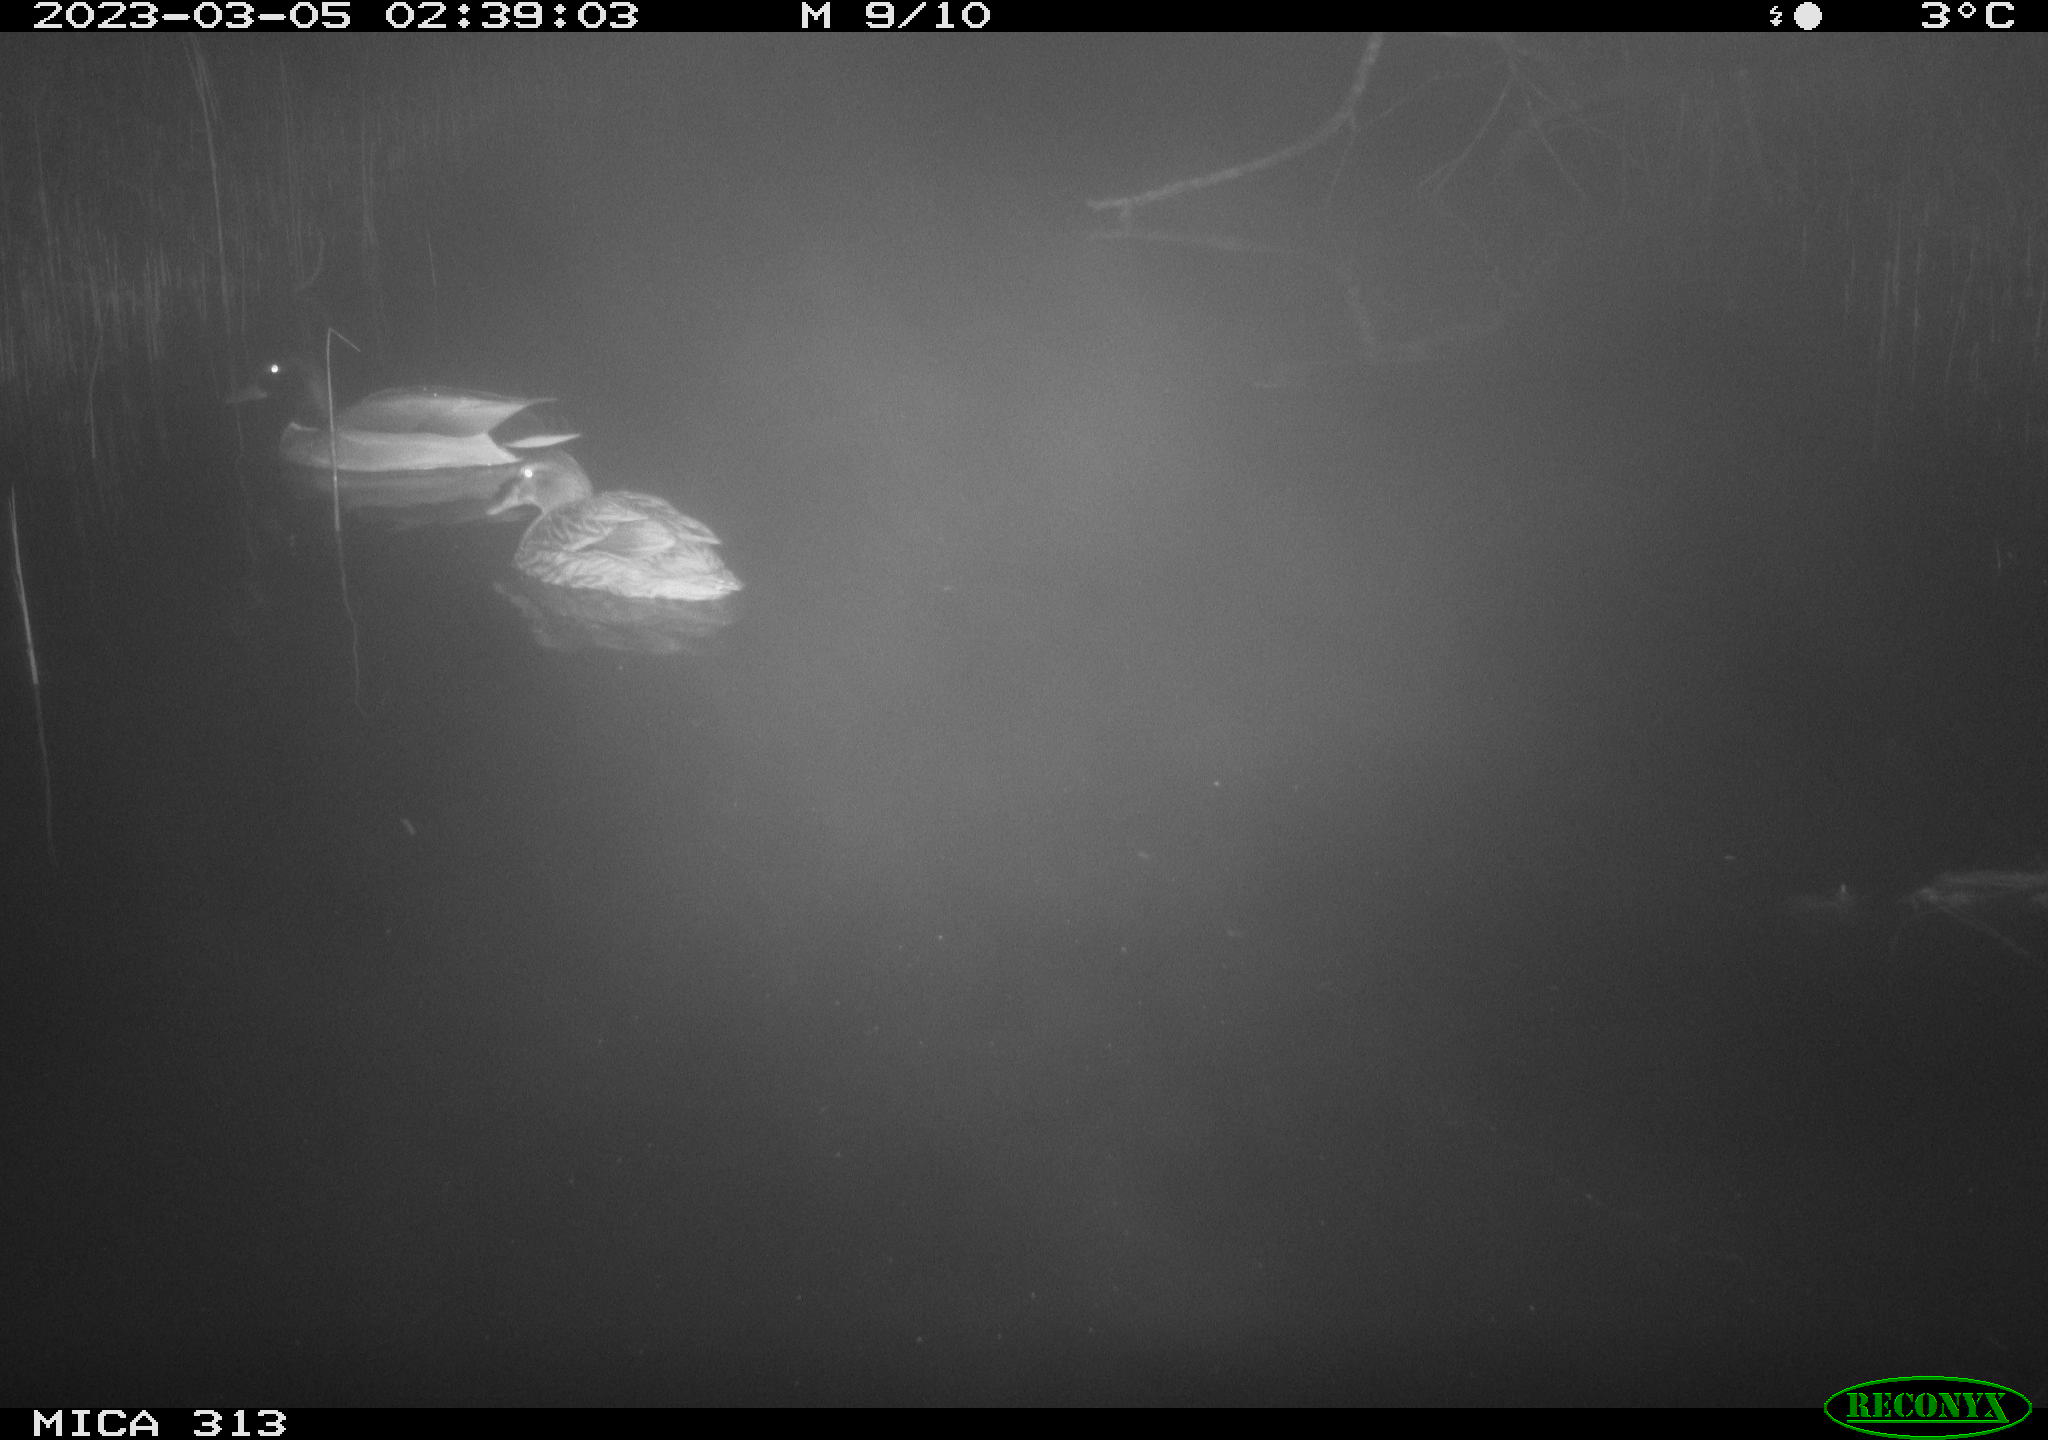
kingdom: Animalia
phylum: Chordata
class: Aves
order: Anseriformes
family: Anatidae
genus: Anas
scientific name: Anas
